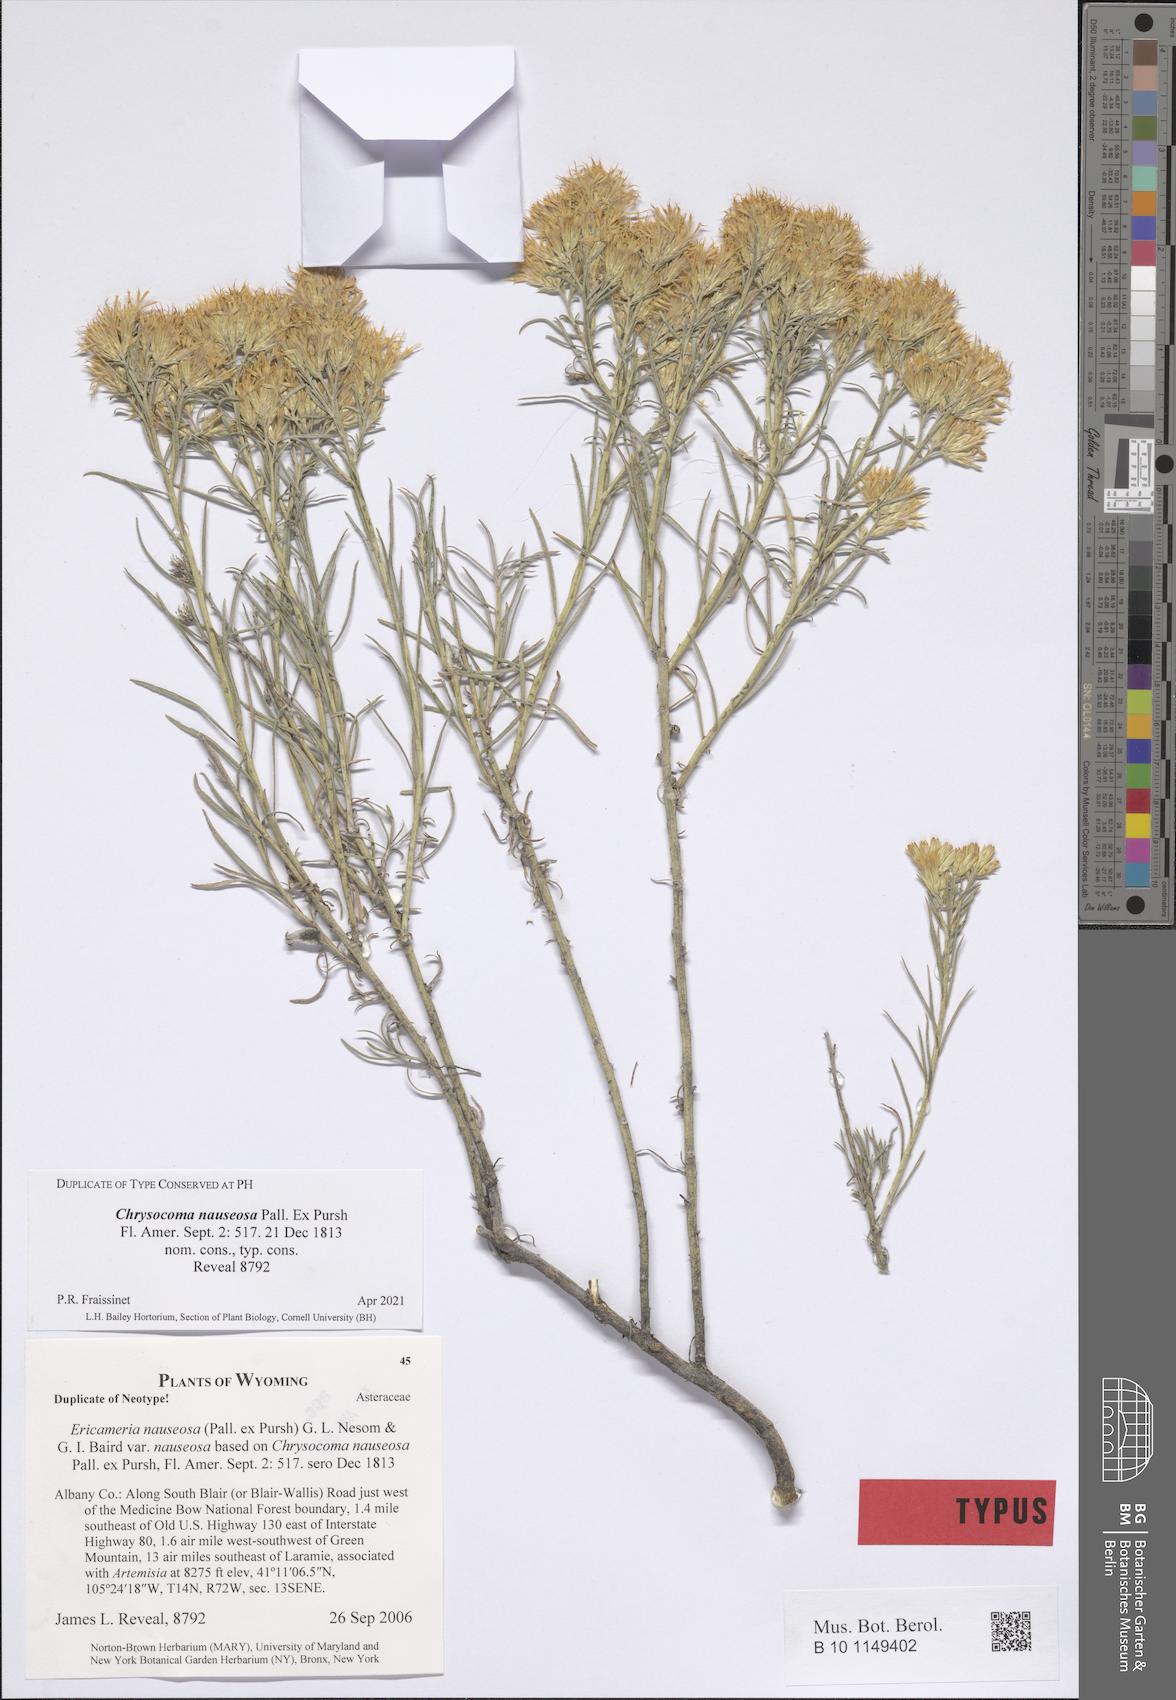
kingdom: Plantae
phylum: Tracheophyta
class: Magnoliopsida
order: Asterales
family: Asteraceae
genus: Ericameria
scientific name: Ericameria nauseosa
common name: Rubber rabbitbrush
